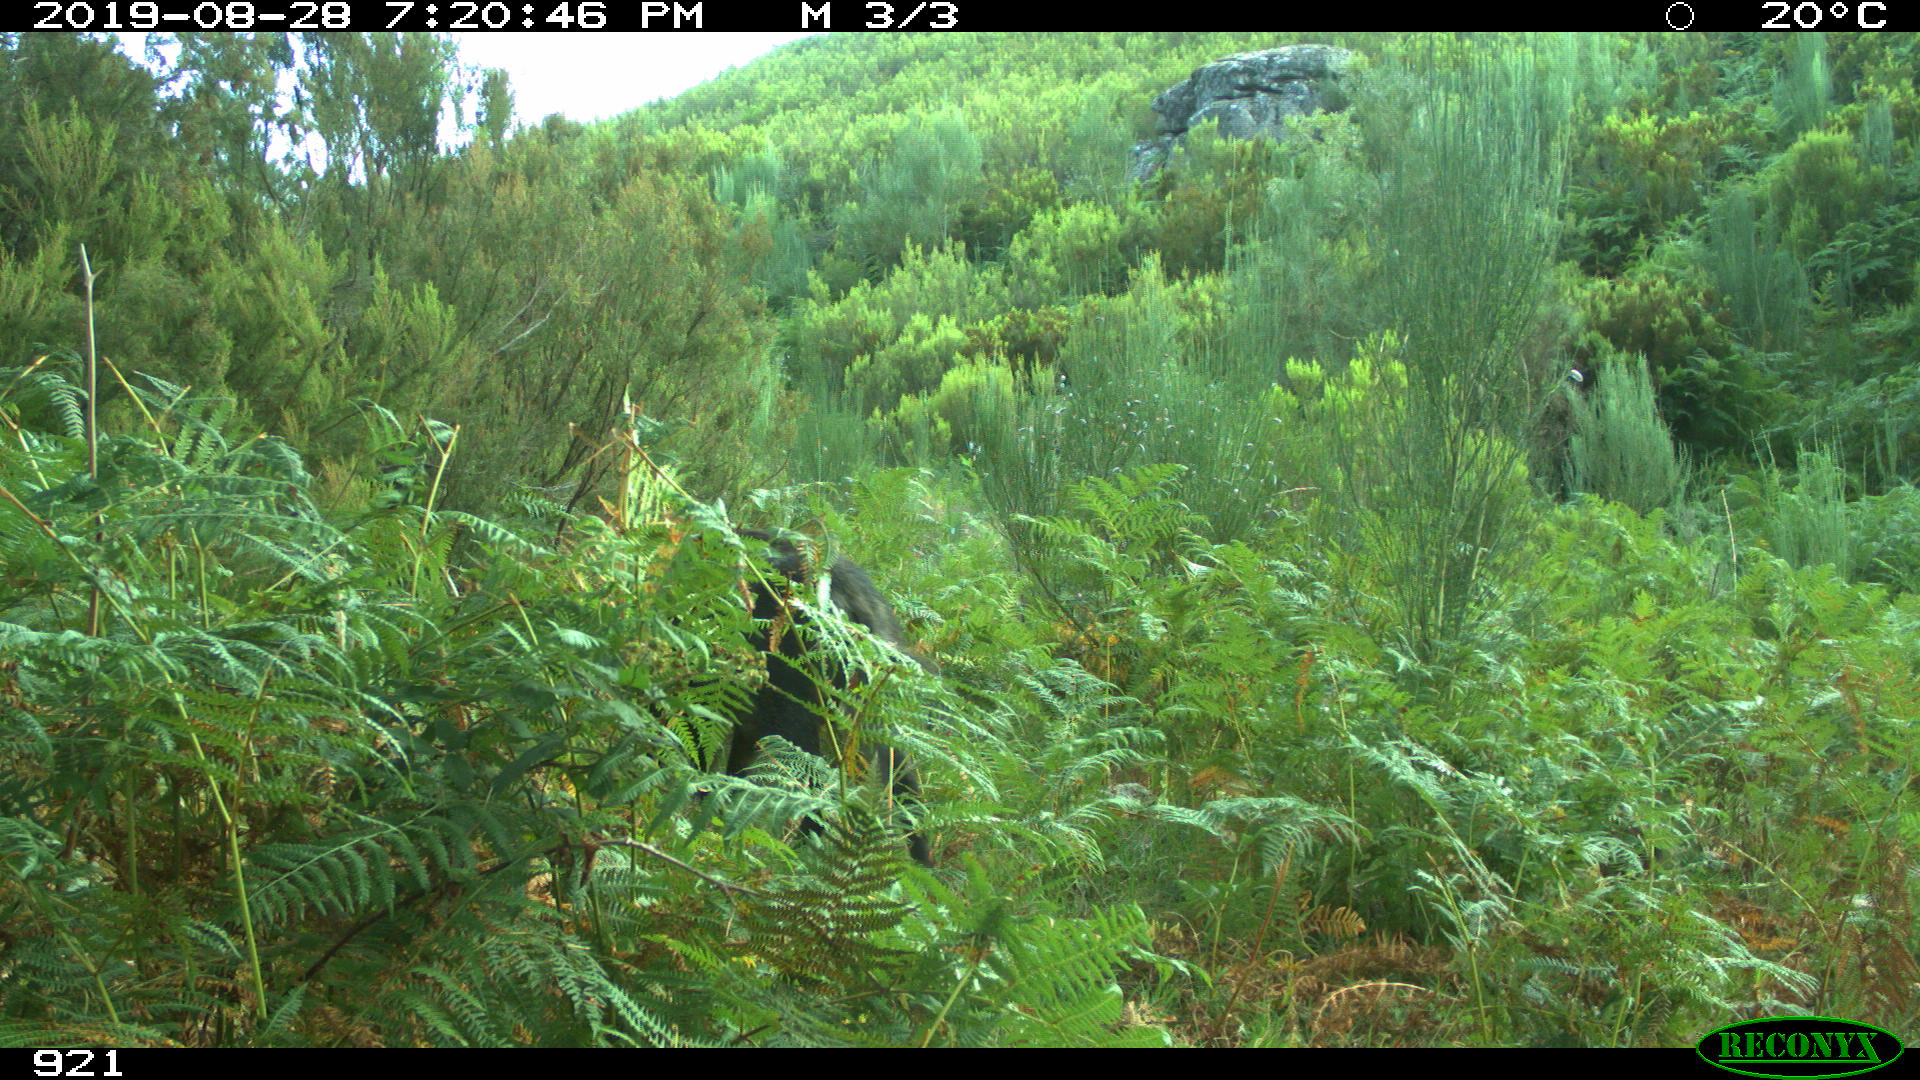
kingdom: Animalia
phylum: Chordata
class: Mammalia
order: Artiodactyla
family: Suidae
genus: Sus
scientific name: Sus scrofa
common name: Wild boar
